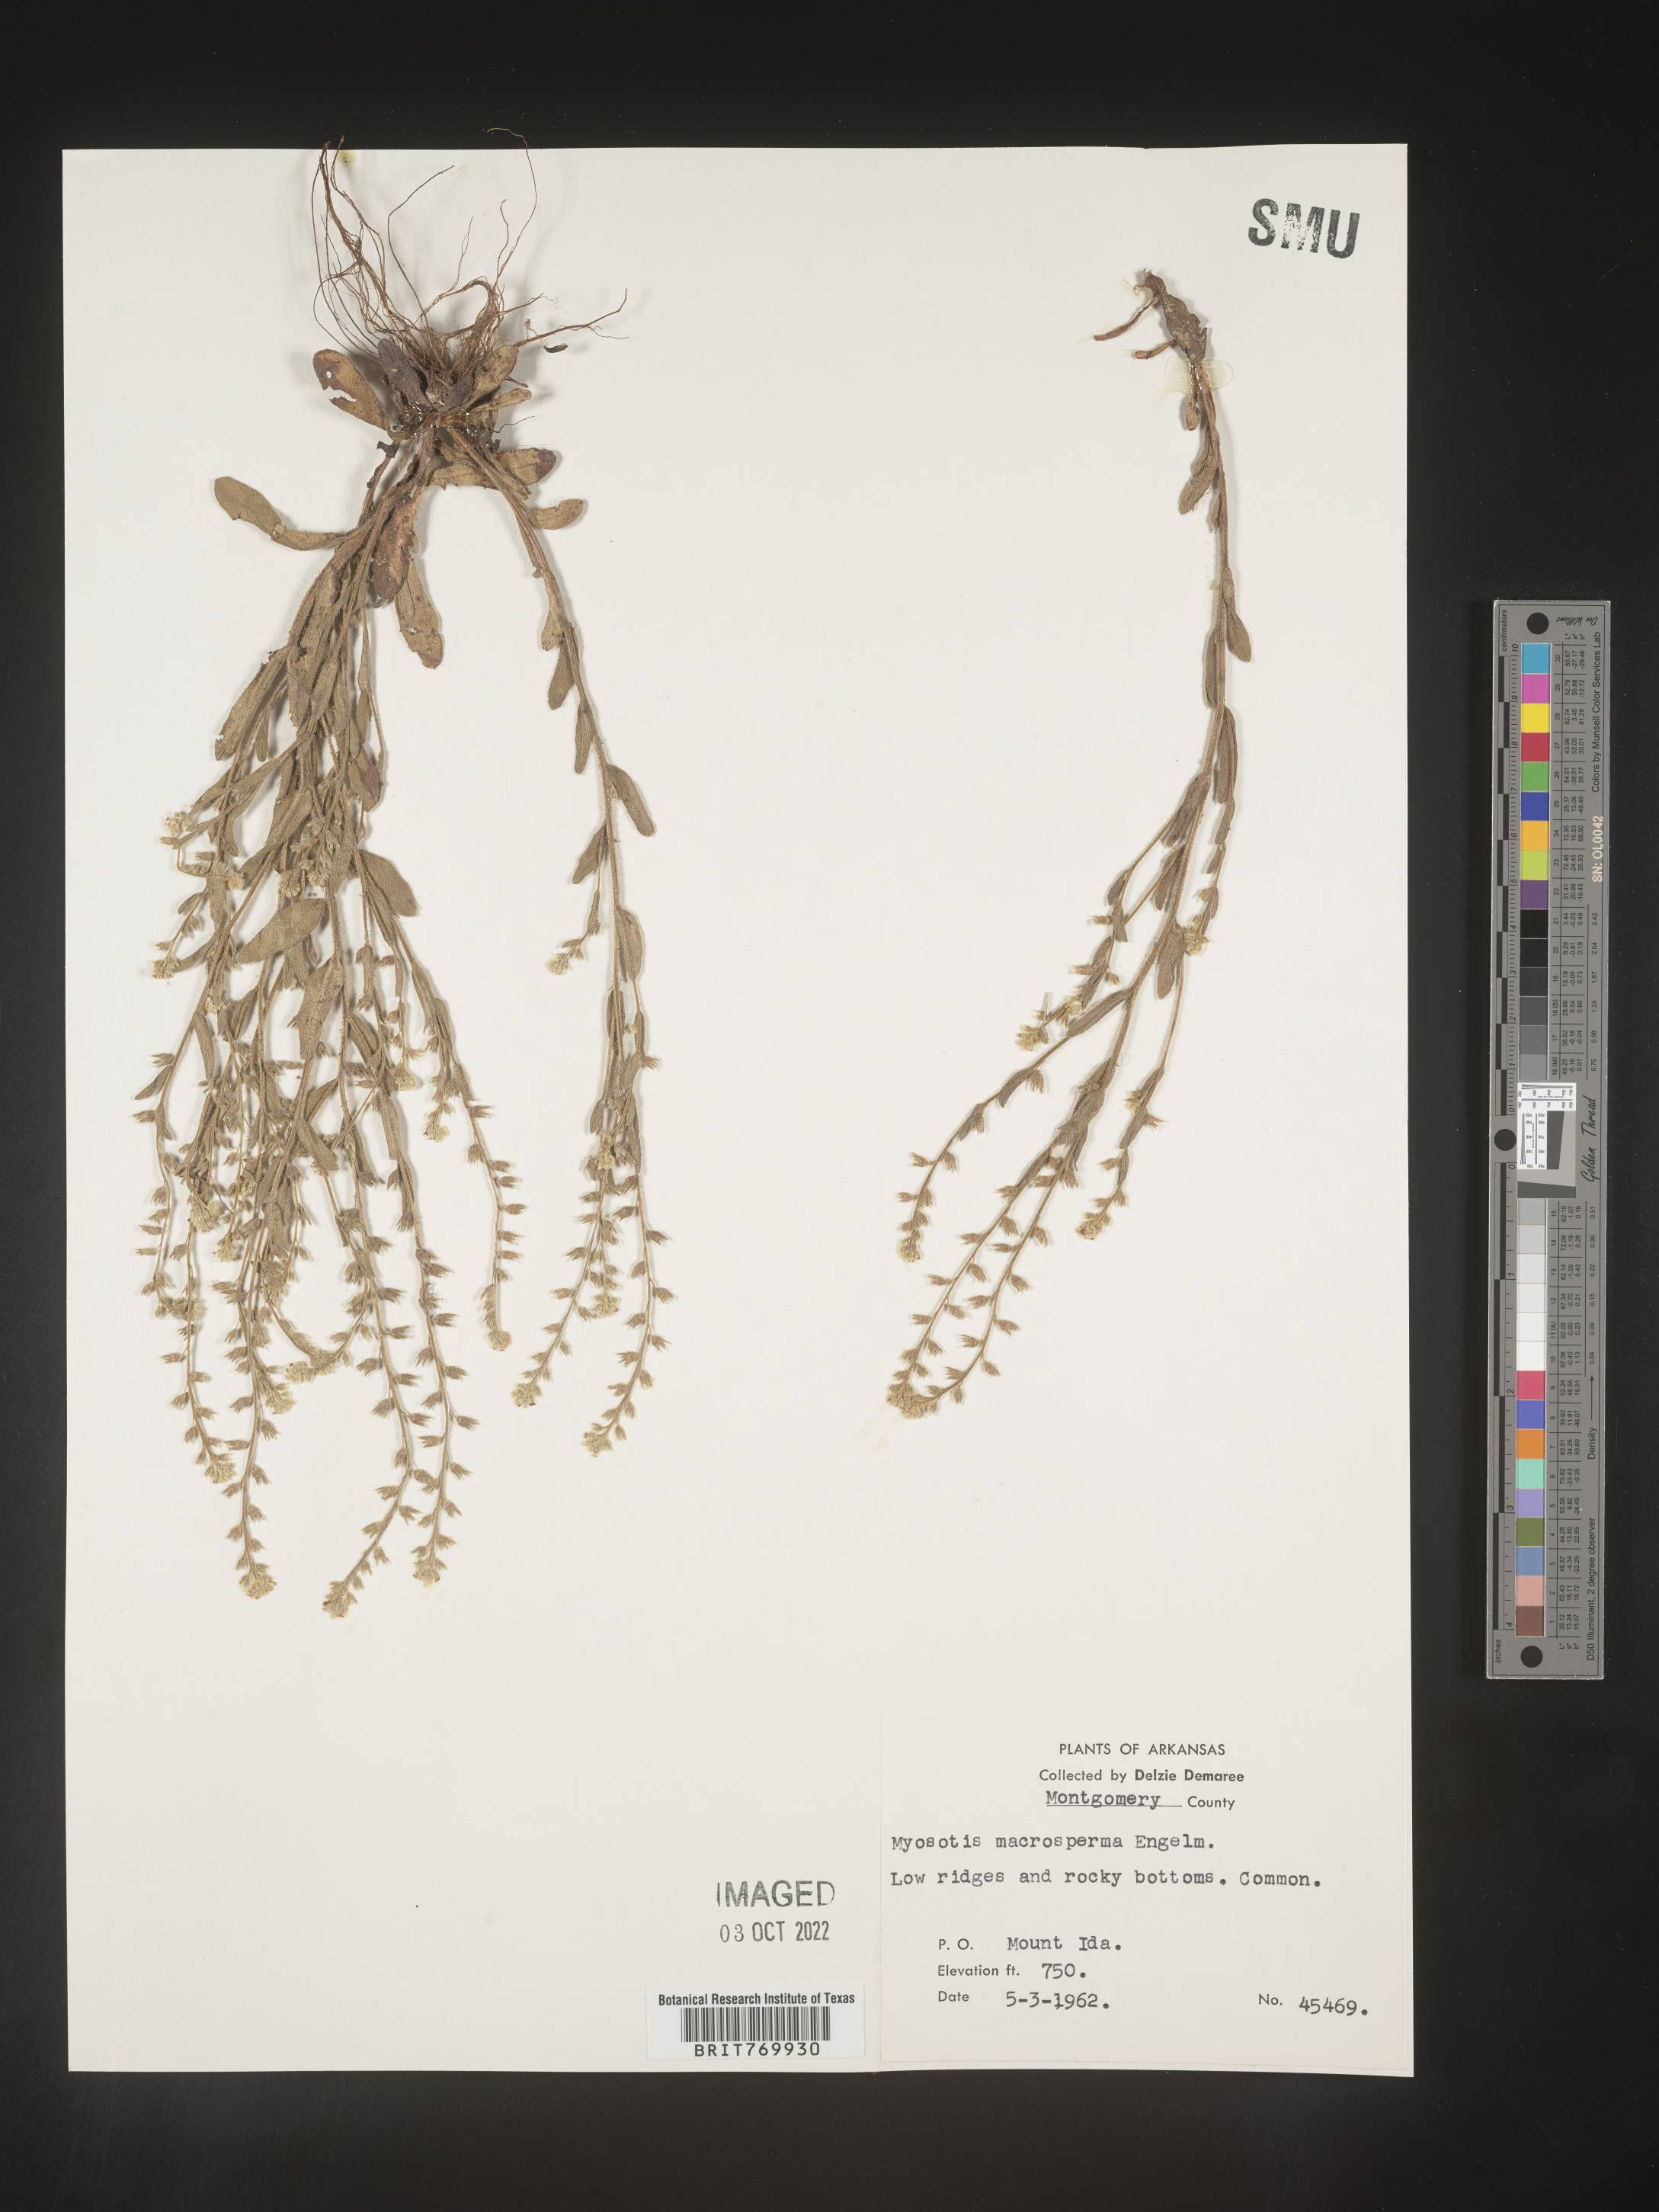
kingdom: Plantae
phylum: Tracheophyta
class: Magnoliopsida
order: Boraginales
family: Boraginaceae
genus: Myosotis
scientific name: Myosotis verna
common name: Early forget-me-not
